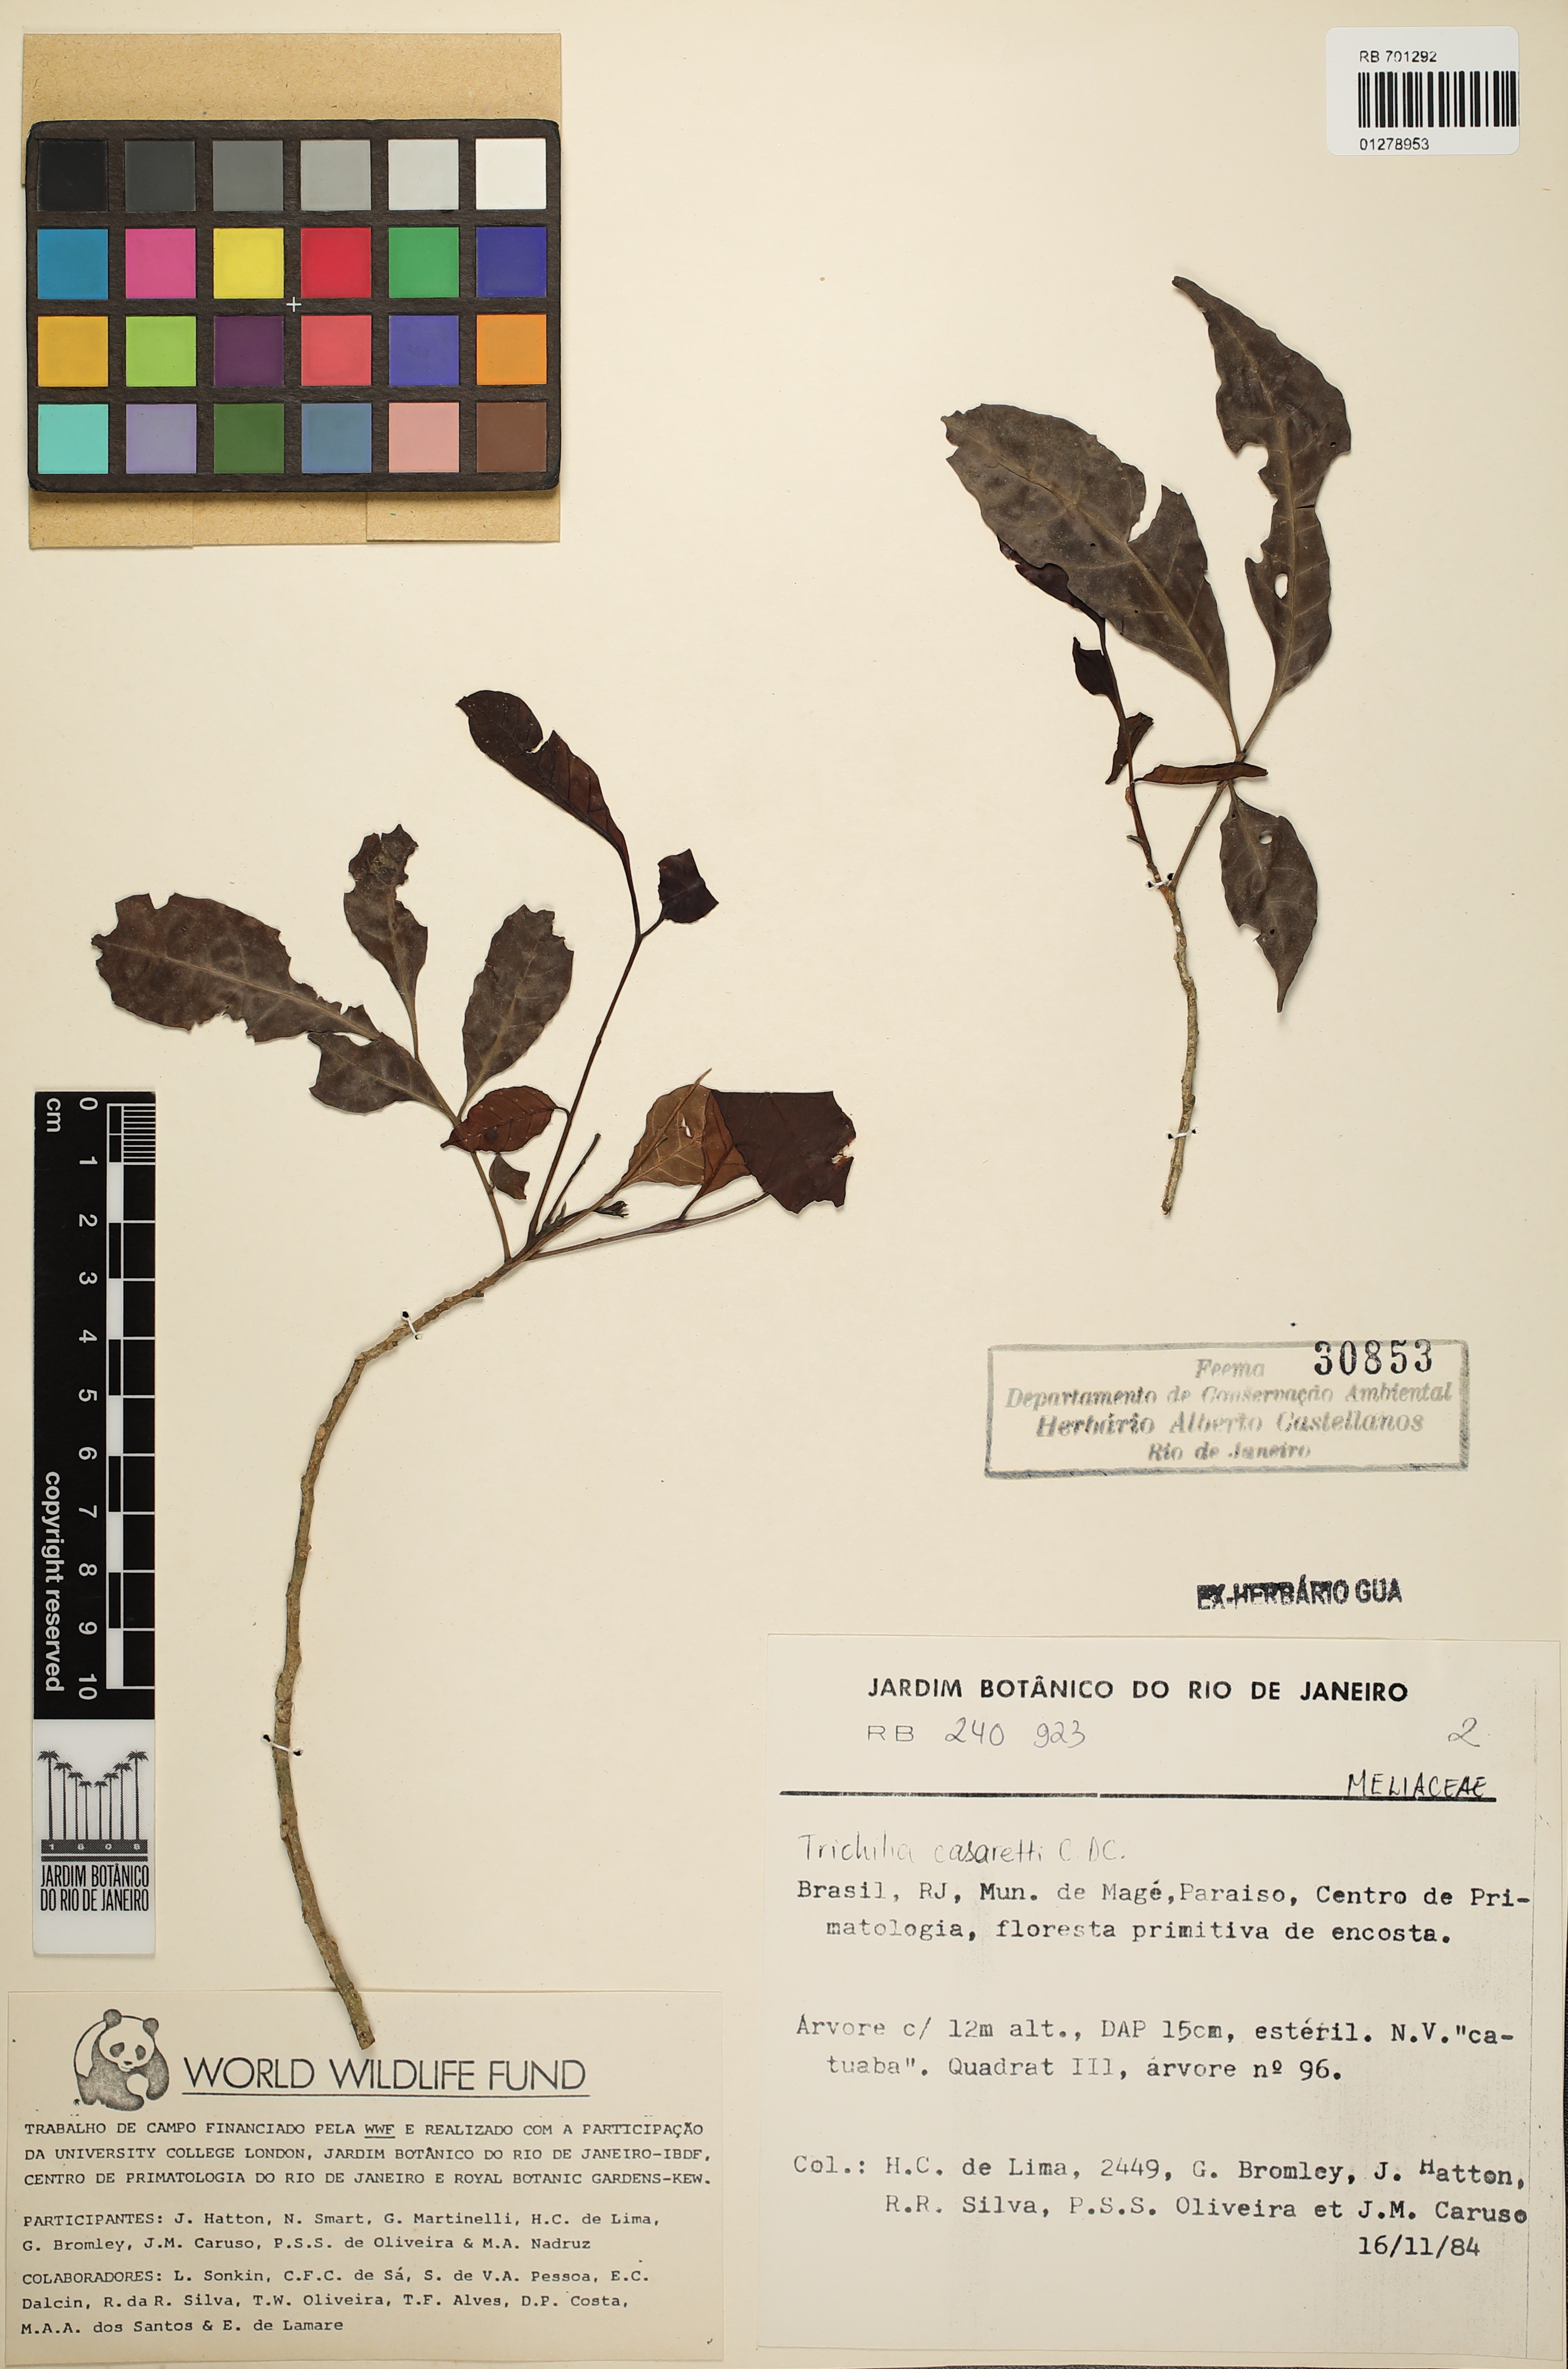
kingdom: Plantae
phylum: Tracheophyta
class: Magnoliopsida
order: Sapindales
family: Meliaceae
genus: Trichilia
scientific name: Trichilia casaretti
